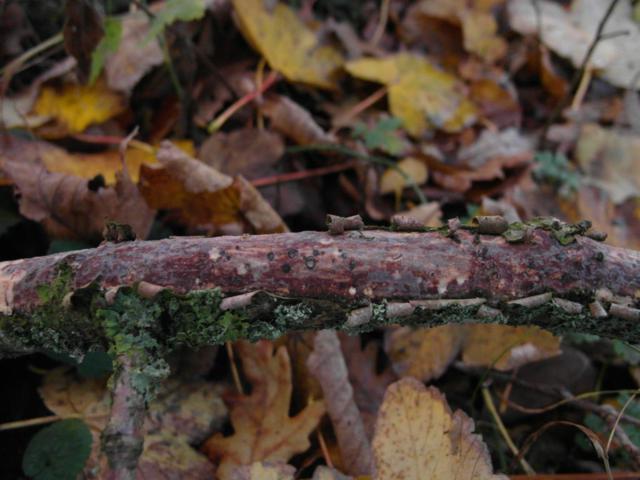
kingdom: Fungi
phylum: Basidiomycota
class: Agaricomycetes
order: Corticiales
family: Vuilleminiaceae
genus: Vuilleminia
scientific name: Vuilleminia comedens
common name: almindelig barksprænger
